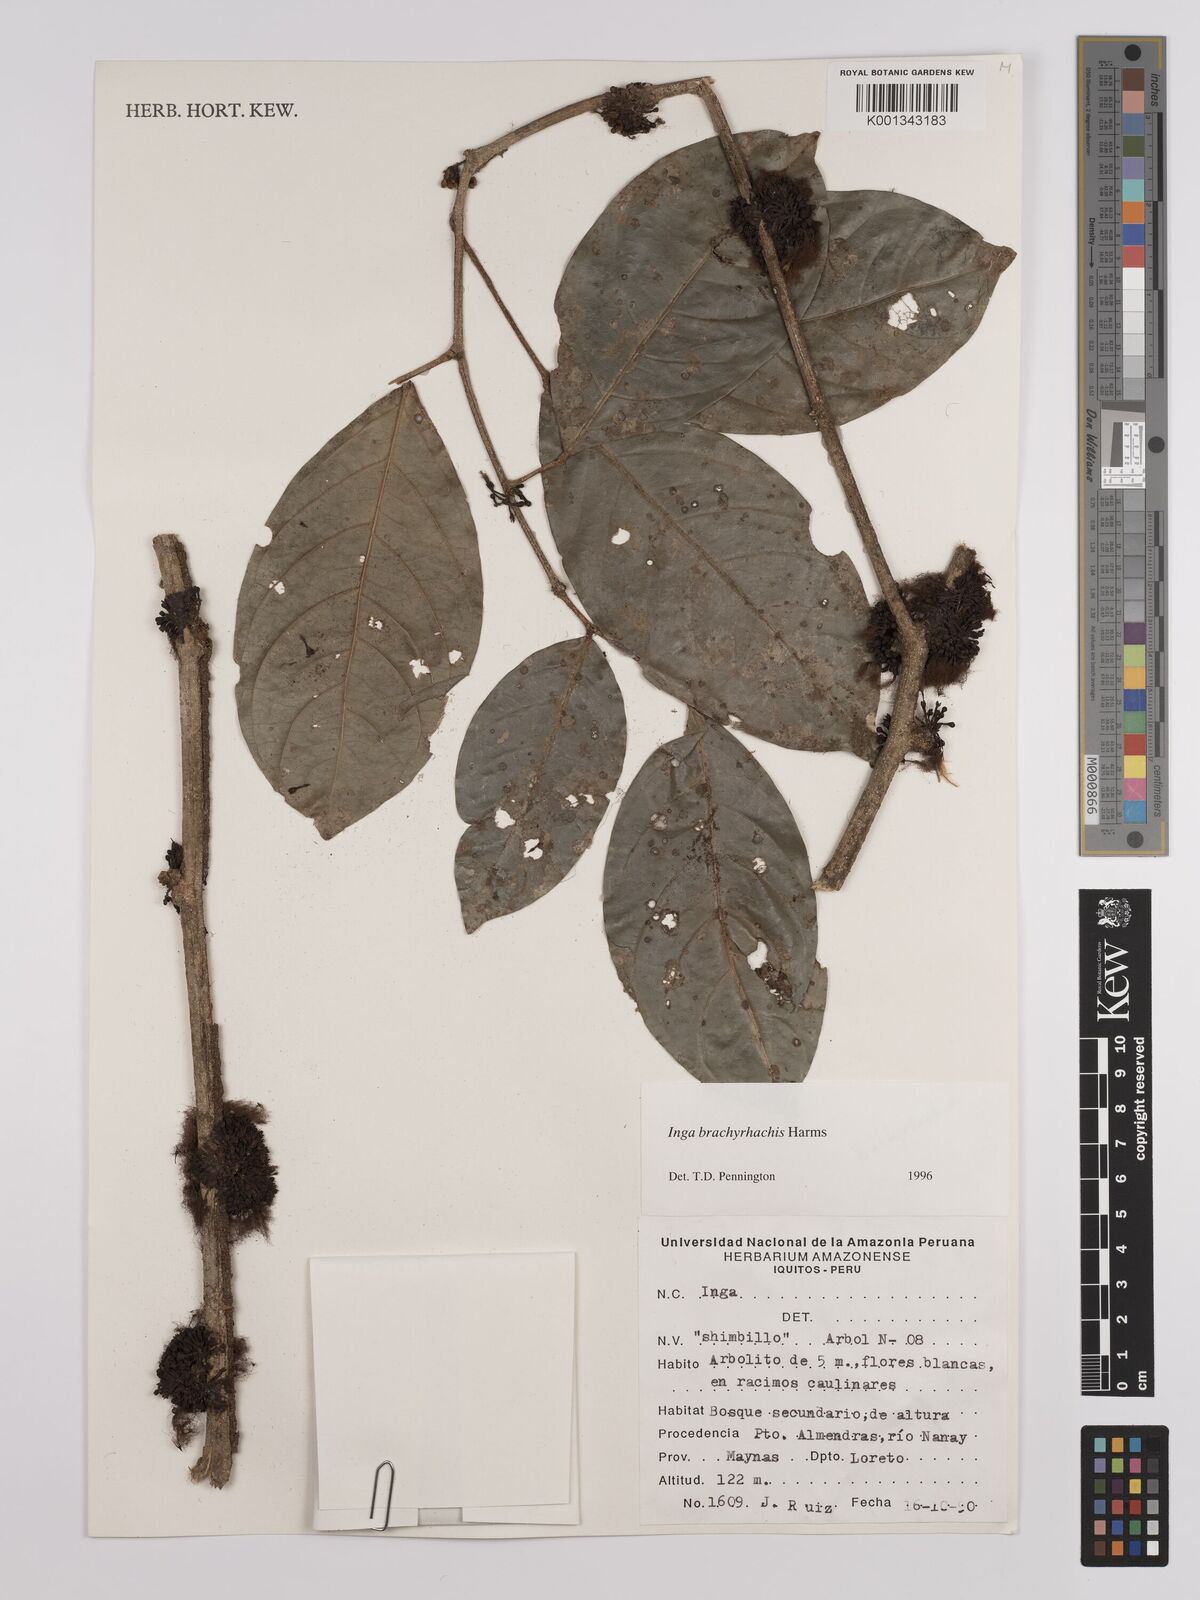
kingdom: Plantae
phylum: Tracheophyta
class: Magnoliopsida
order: Fabales
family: Fabaceae
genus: Inga
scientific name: Inga brachyrhachis
